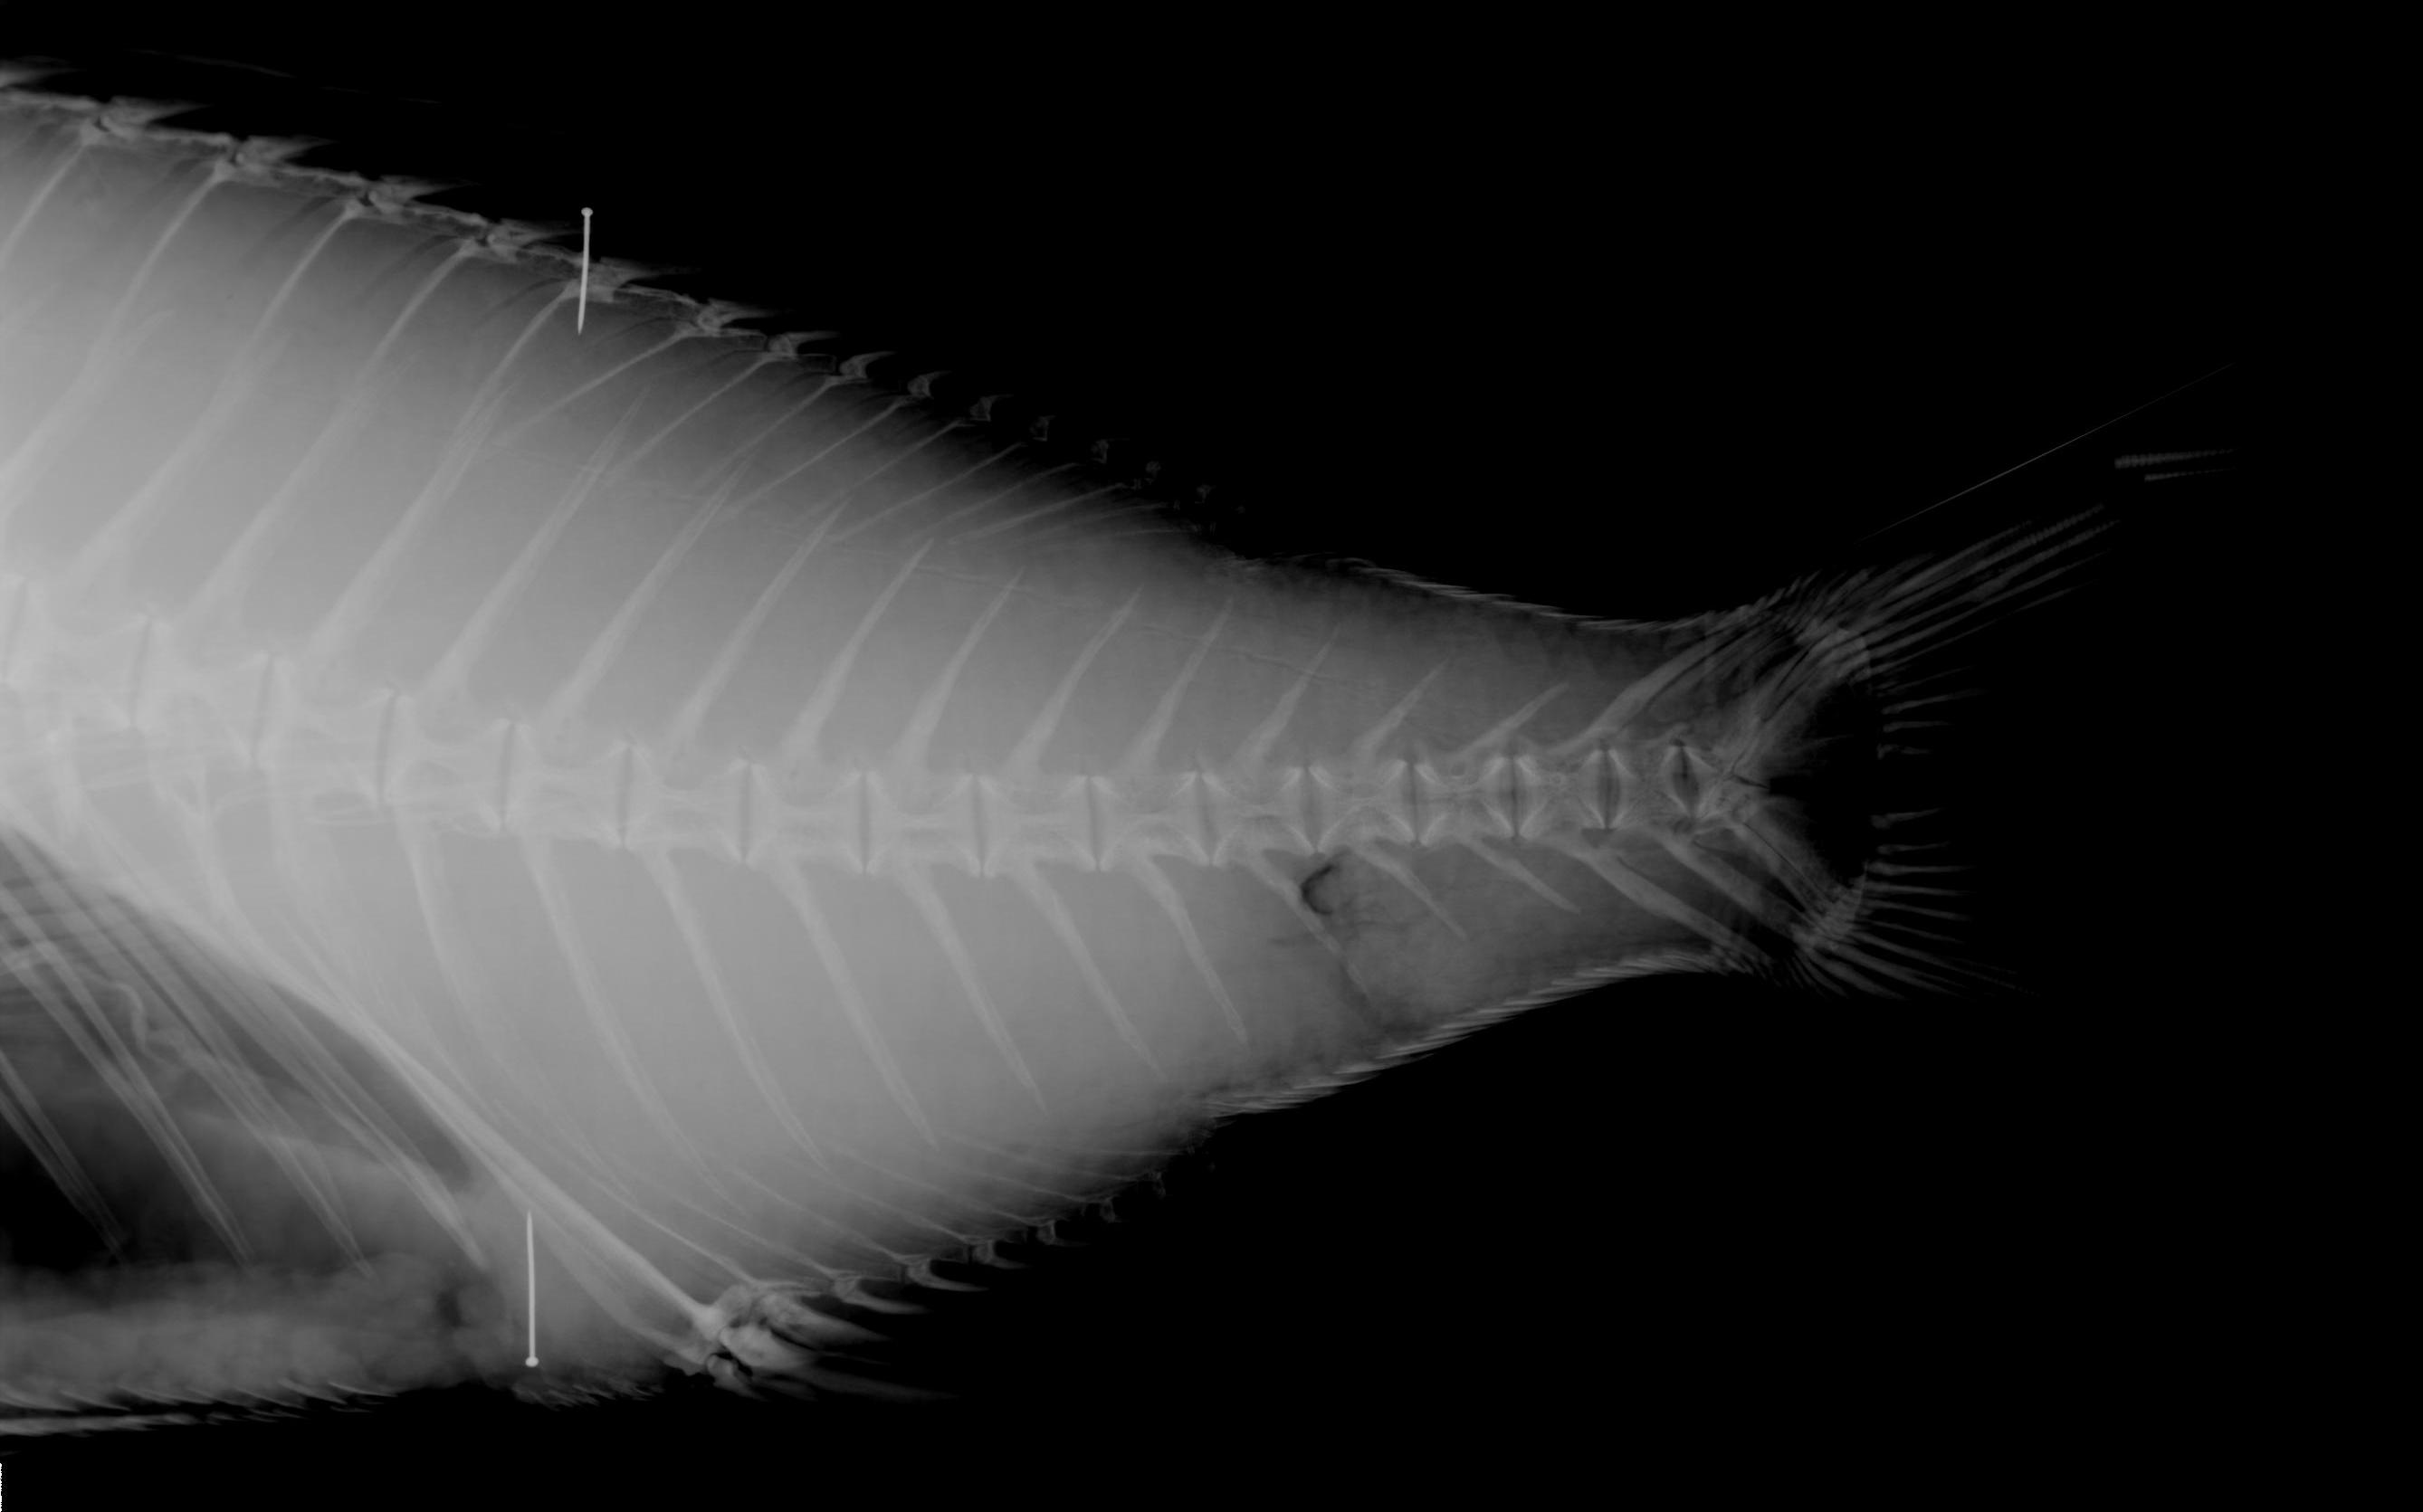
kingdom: Animalia
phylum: Chordata
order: Perciformes
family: Sparidae
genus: Polysteganus
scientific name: Polysteganus mascarenensis
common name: Mascarene red seabream
